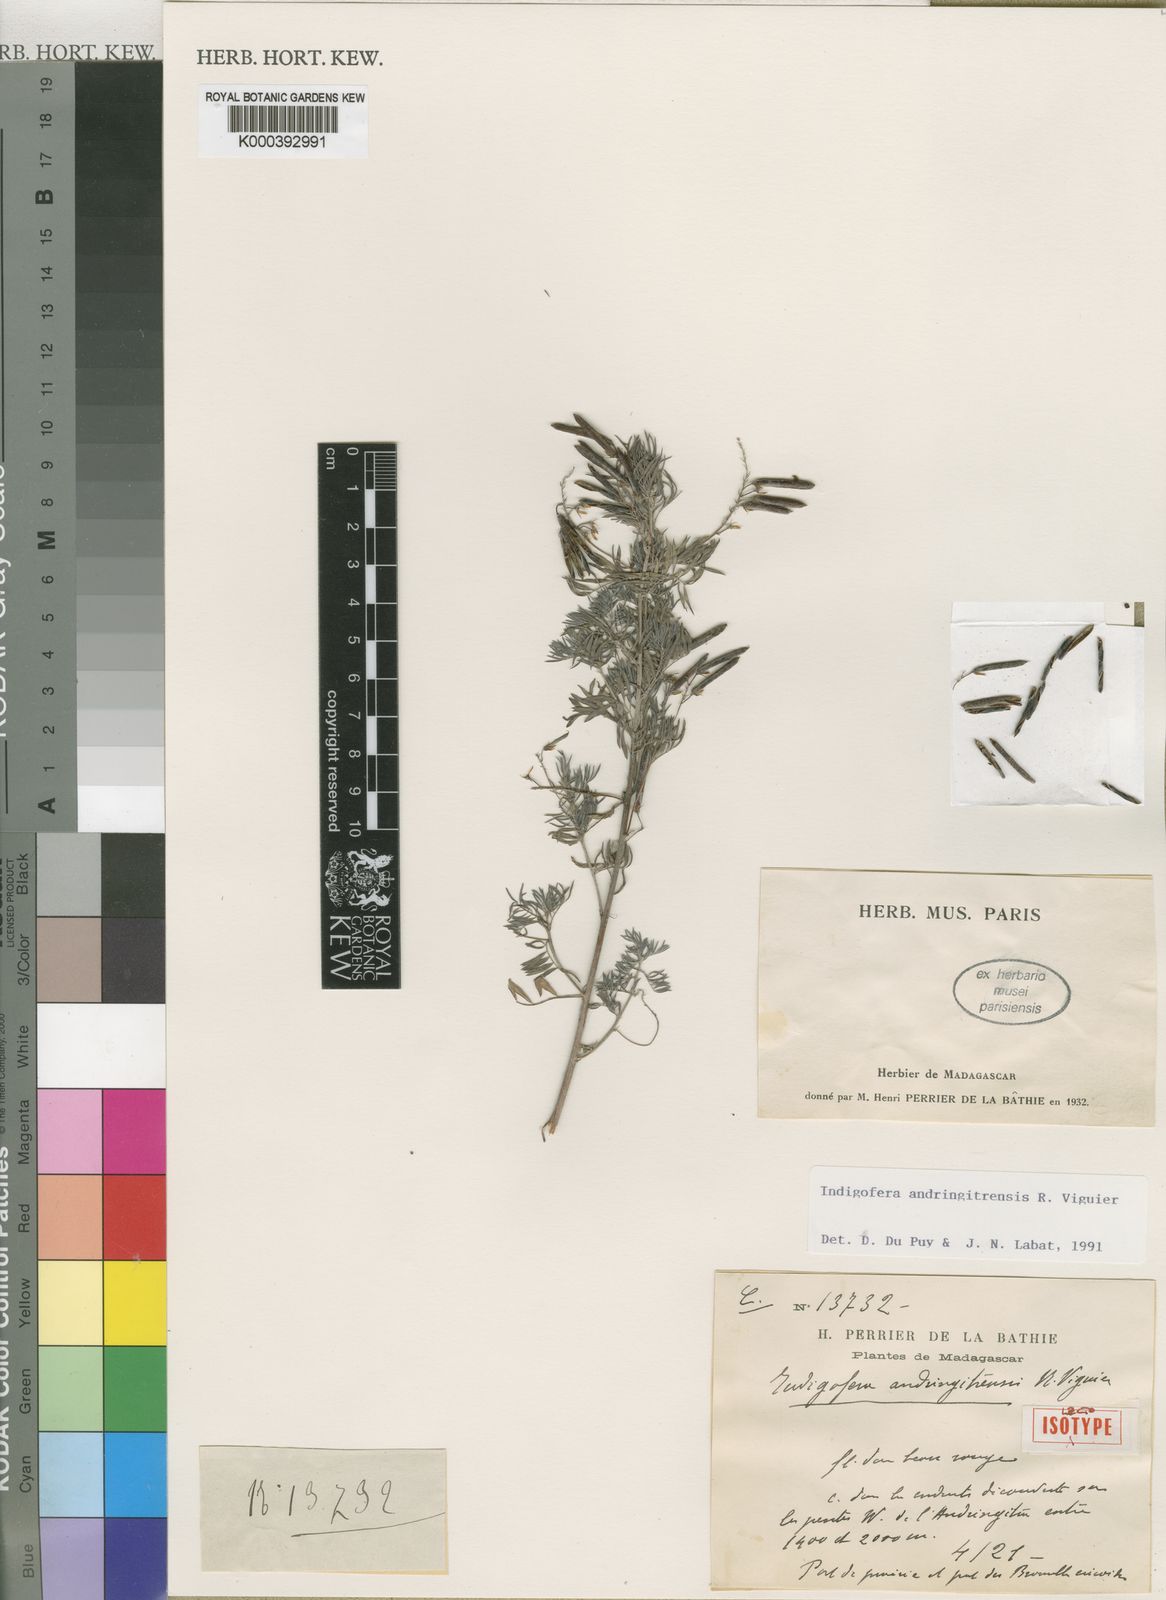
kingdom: Plantae
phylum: Tracheophyta
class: Magnoliopsida
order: Fabales
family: Fabaceae
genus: Indigofera
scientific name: Indigofera andringitrensis
